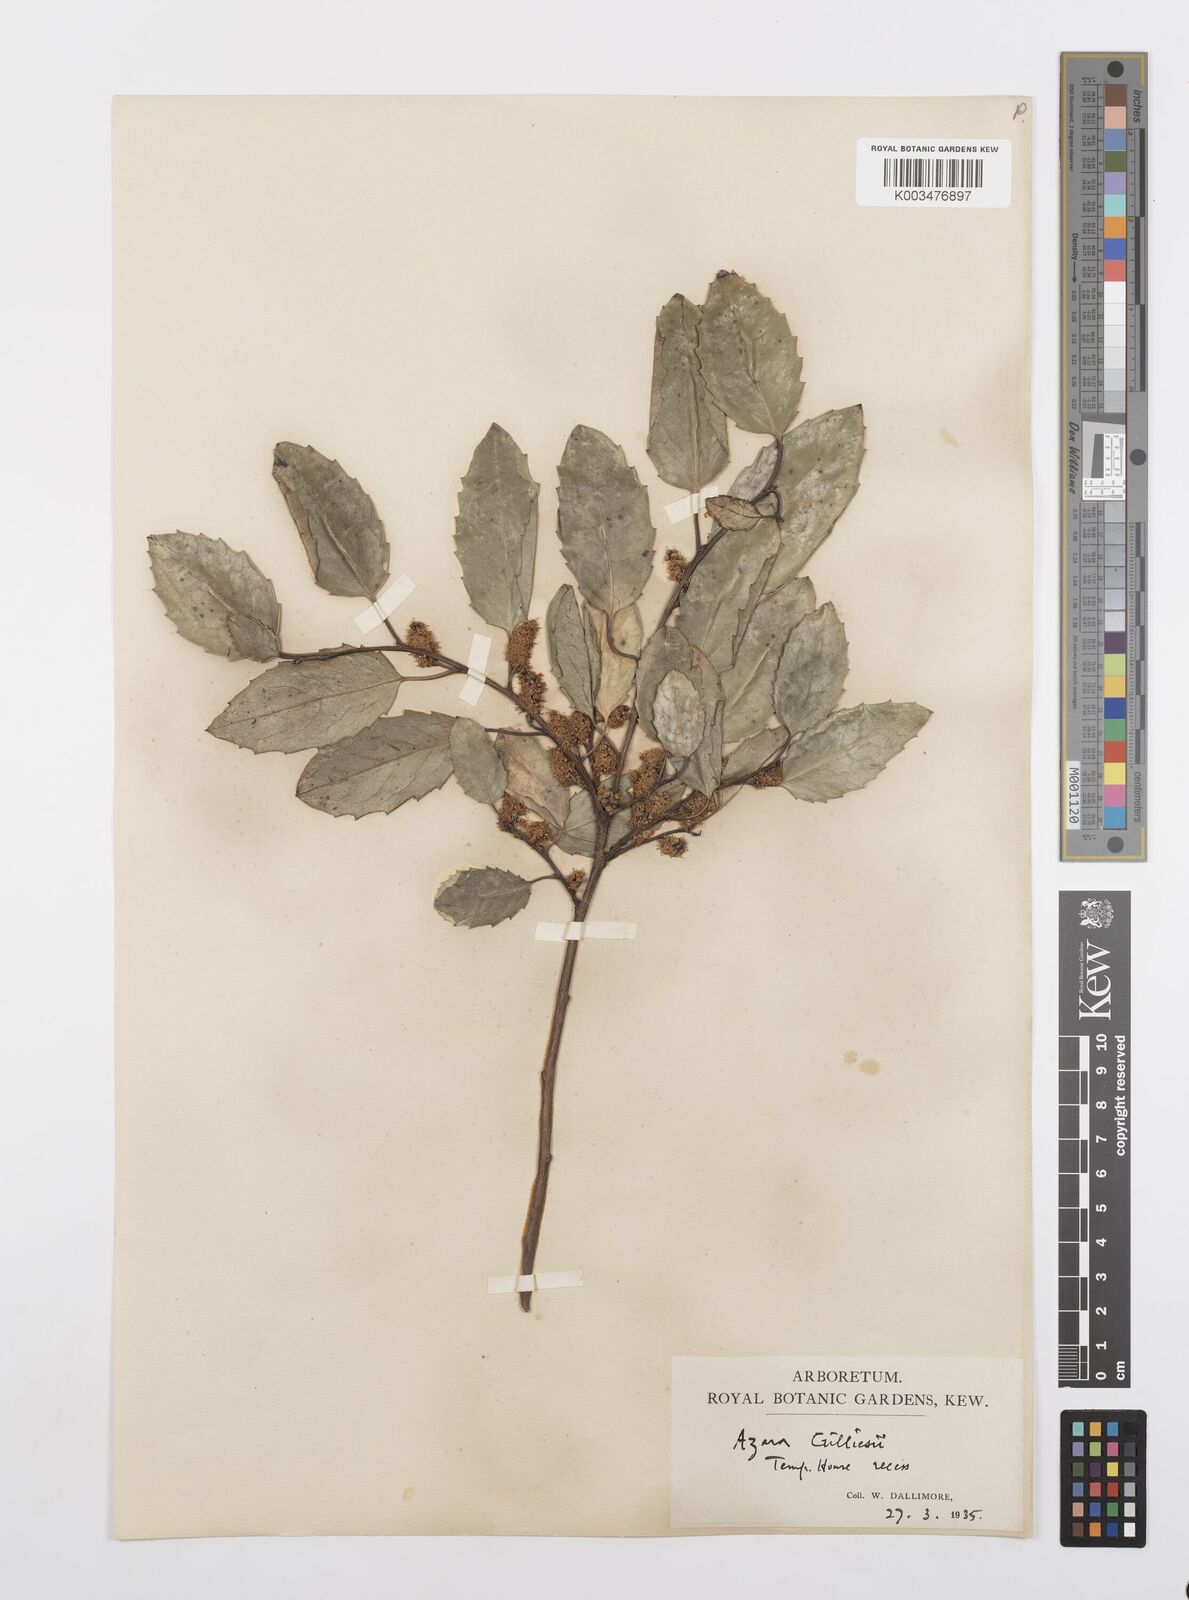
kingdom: Plantae
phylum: Tracheophyta
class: Magnoliopsida
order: Malpighiales
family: Salicaceae
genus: Azara
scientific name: Azara petiolaris
